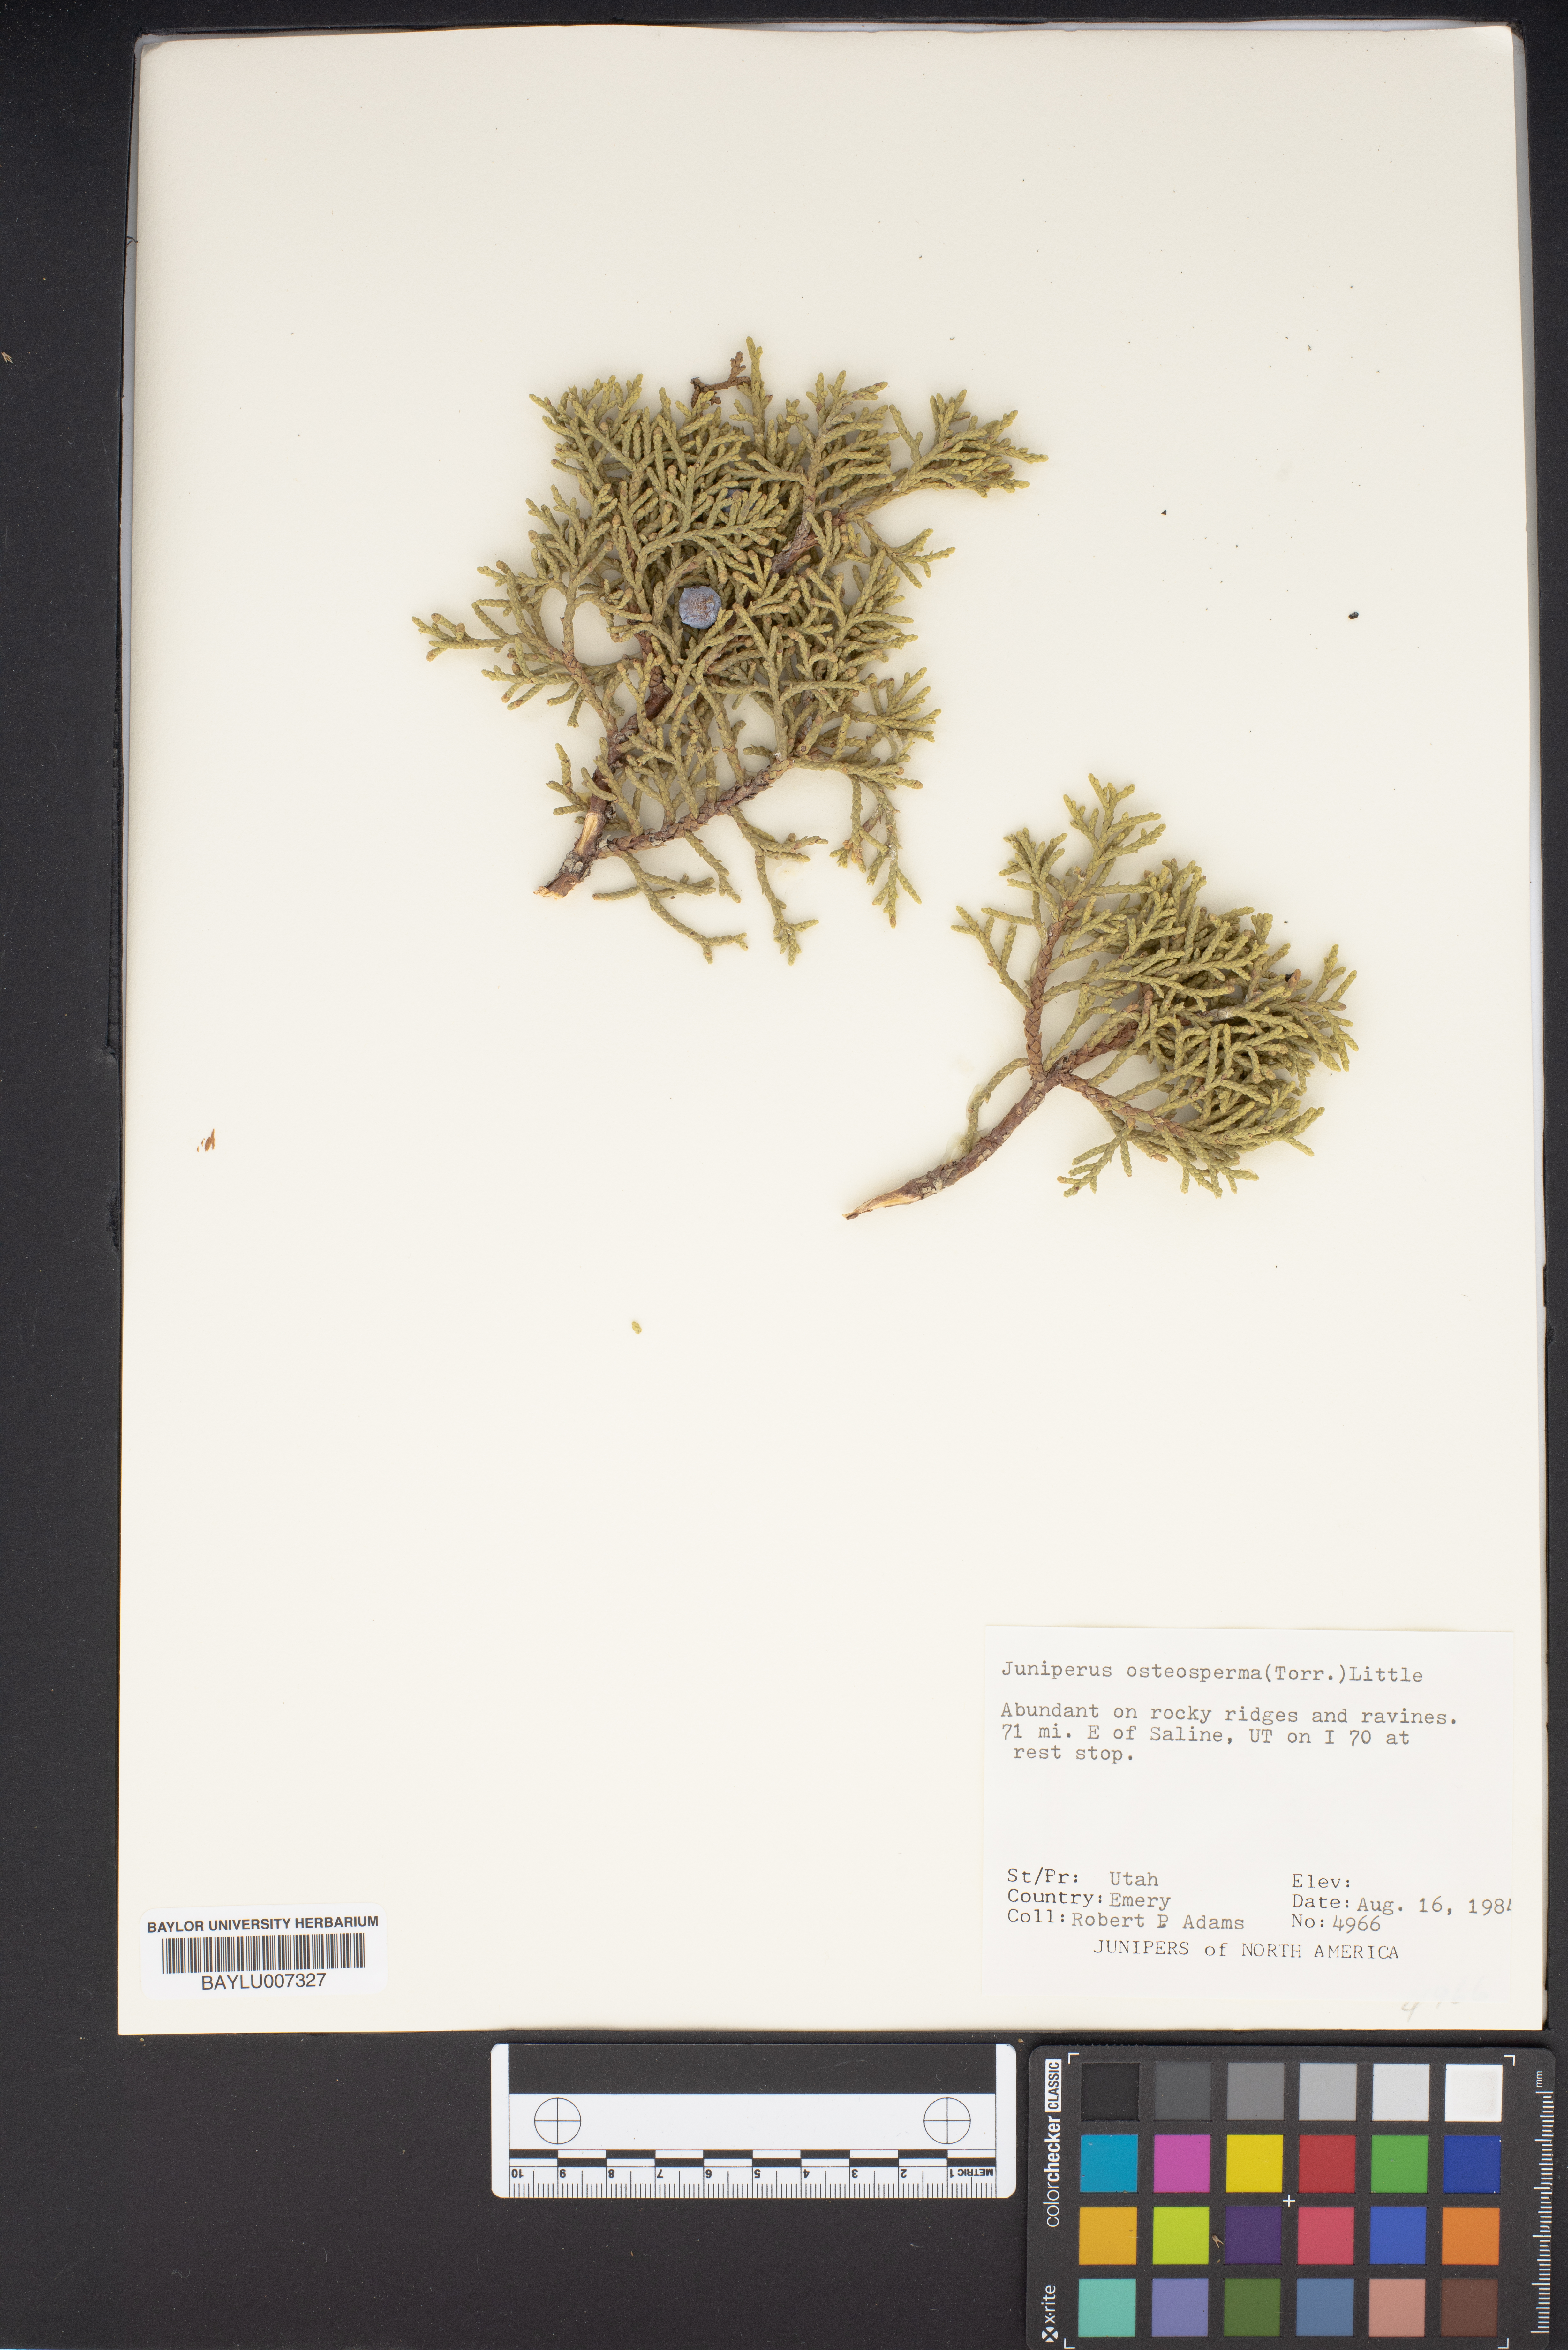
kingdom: Plantae
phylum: Tracheophyta
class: Pinopsida
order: Pinales
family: Cupressaceae
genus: Juniperus
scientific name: Juniperus osteosperma
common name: Utah juniper
